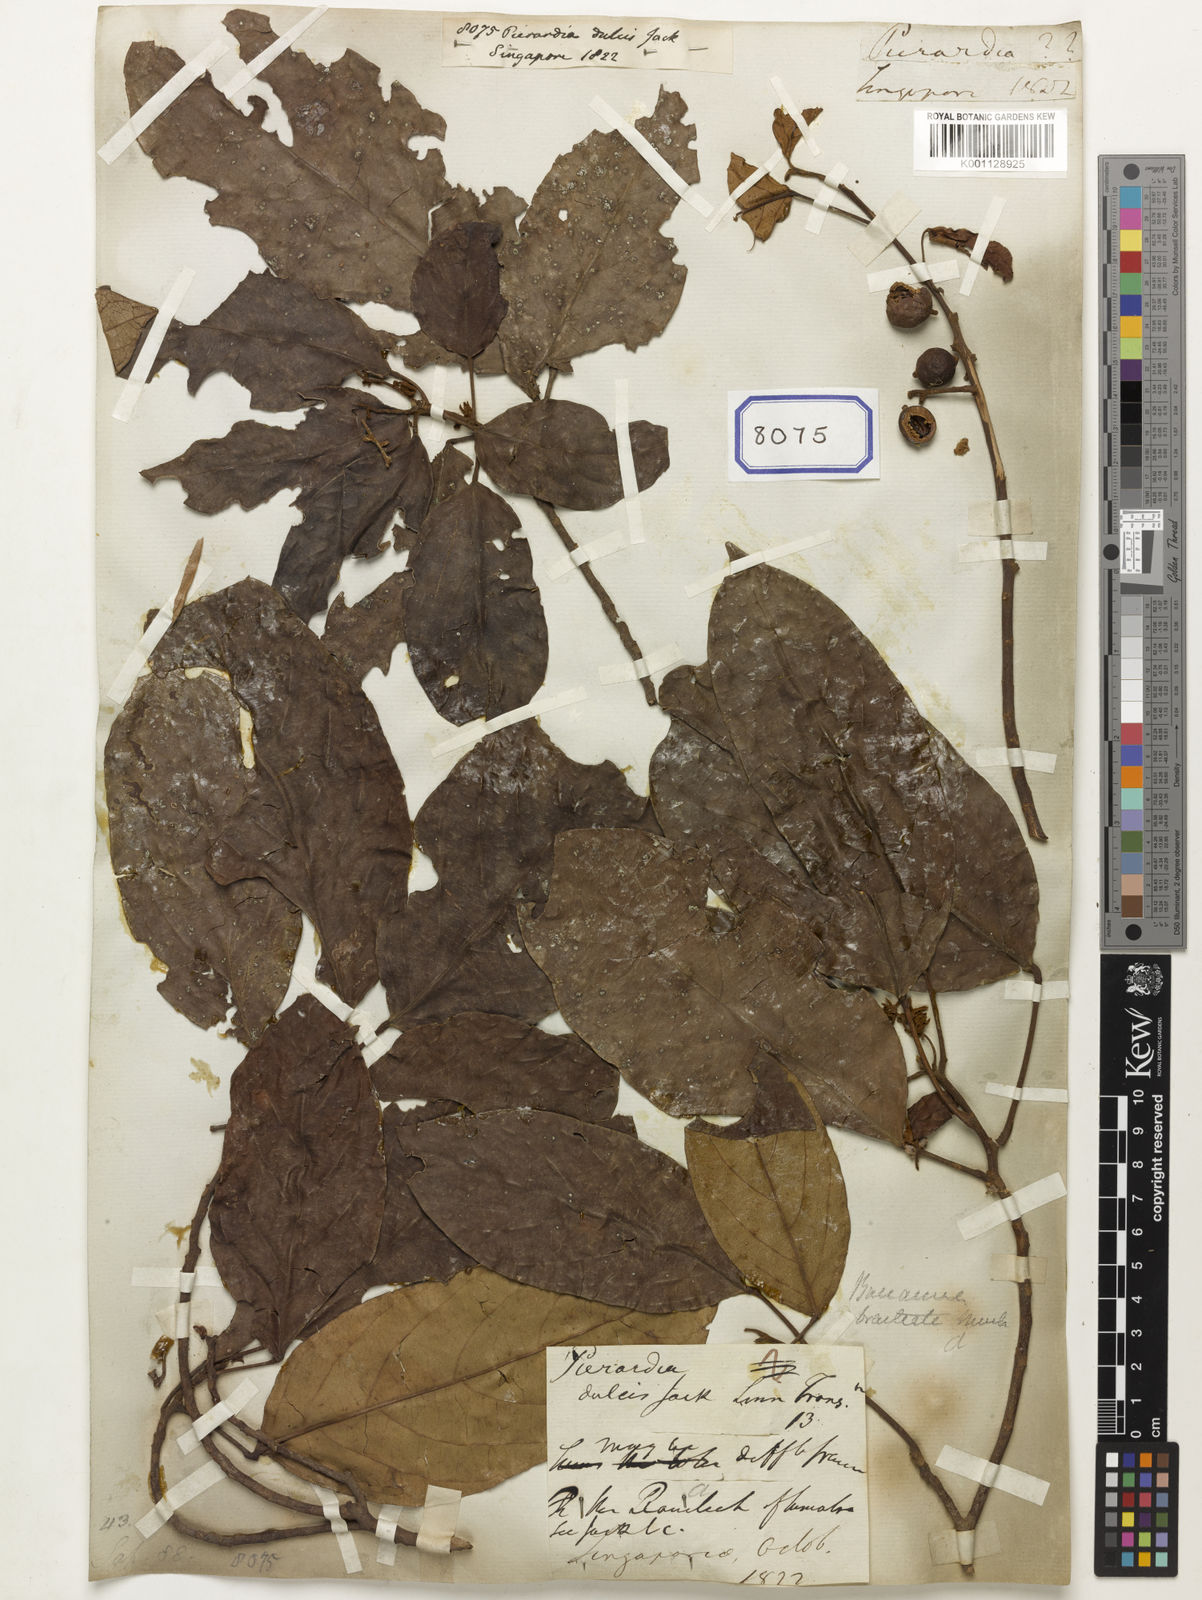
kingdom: Plantae
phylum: Tracheophyta
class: Magnoliopsida
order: Malpighiales
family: Phyllanthaceae
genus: Baccaurea
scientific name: Baccaurea dulcis
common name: Ketupa
